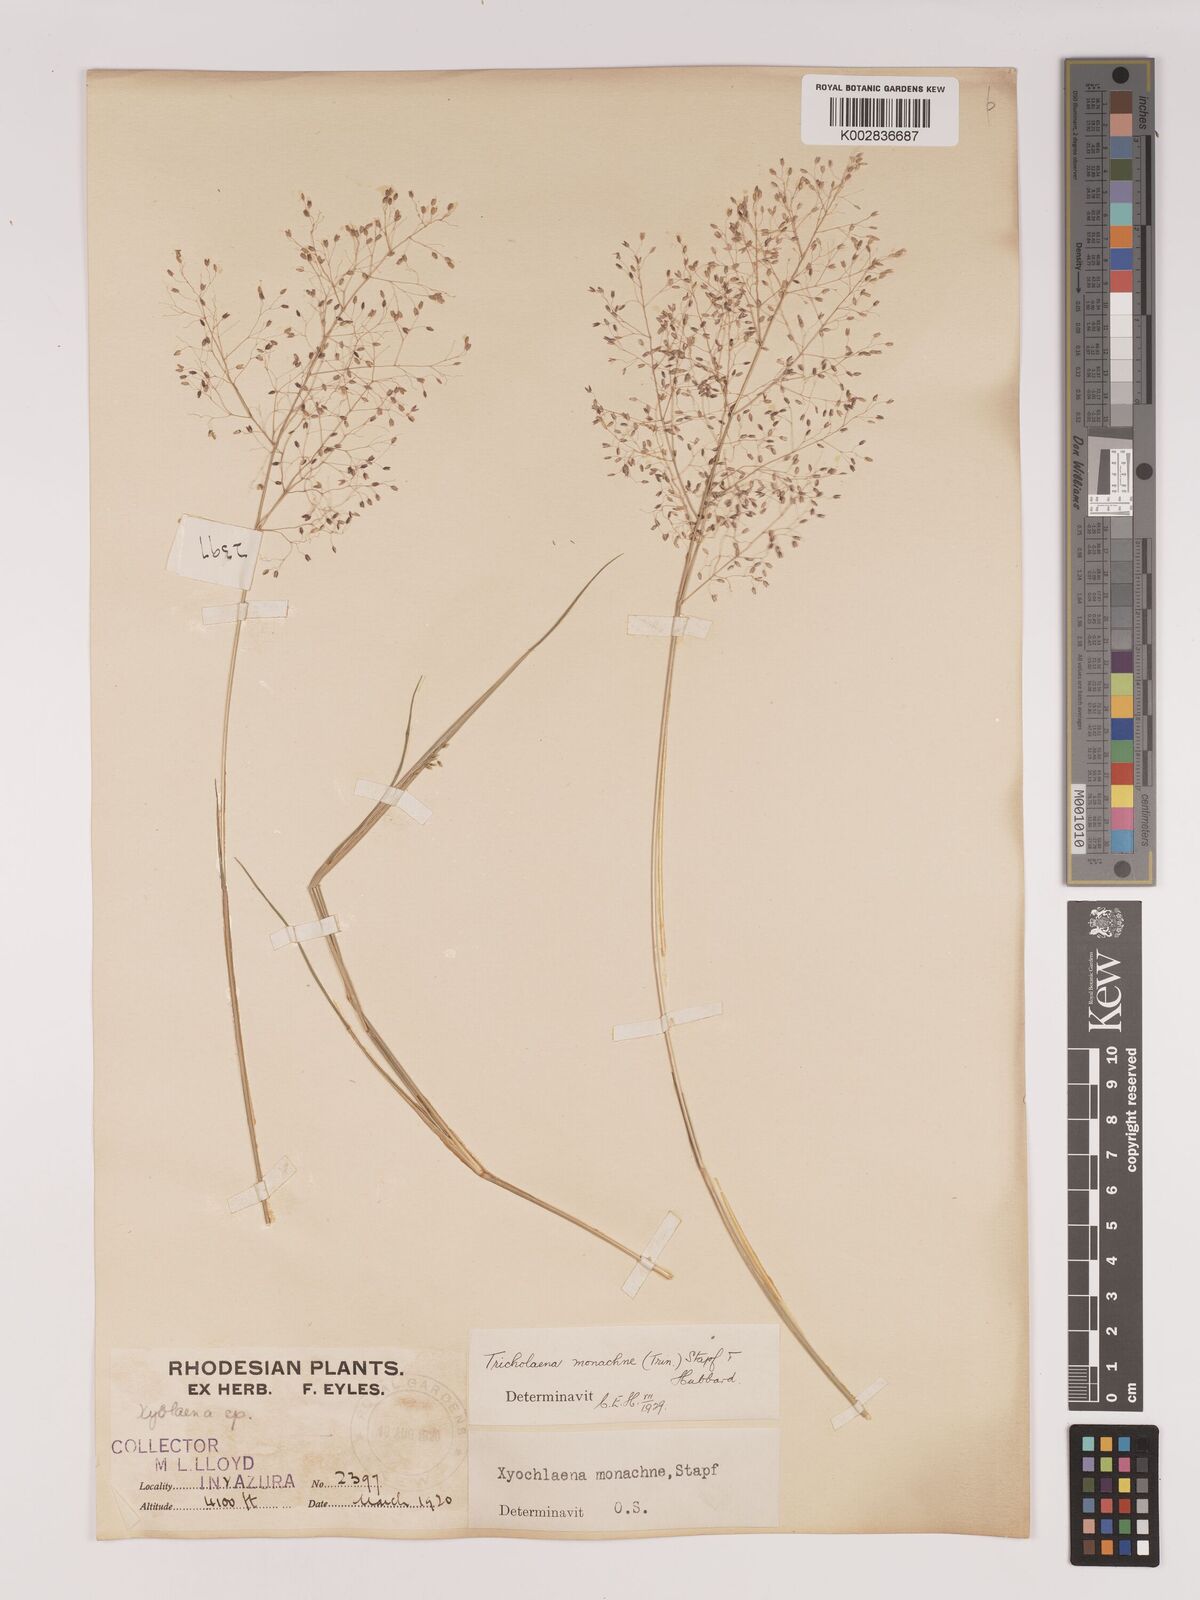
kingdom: Plantae
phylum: Tracheophyta
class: Liliopsida
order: Poales
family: Poaceae
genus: Tricholaena
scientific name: Tricholaena monachne
